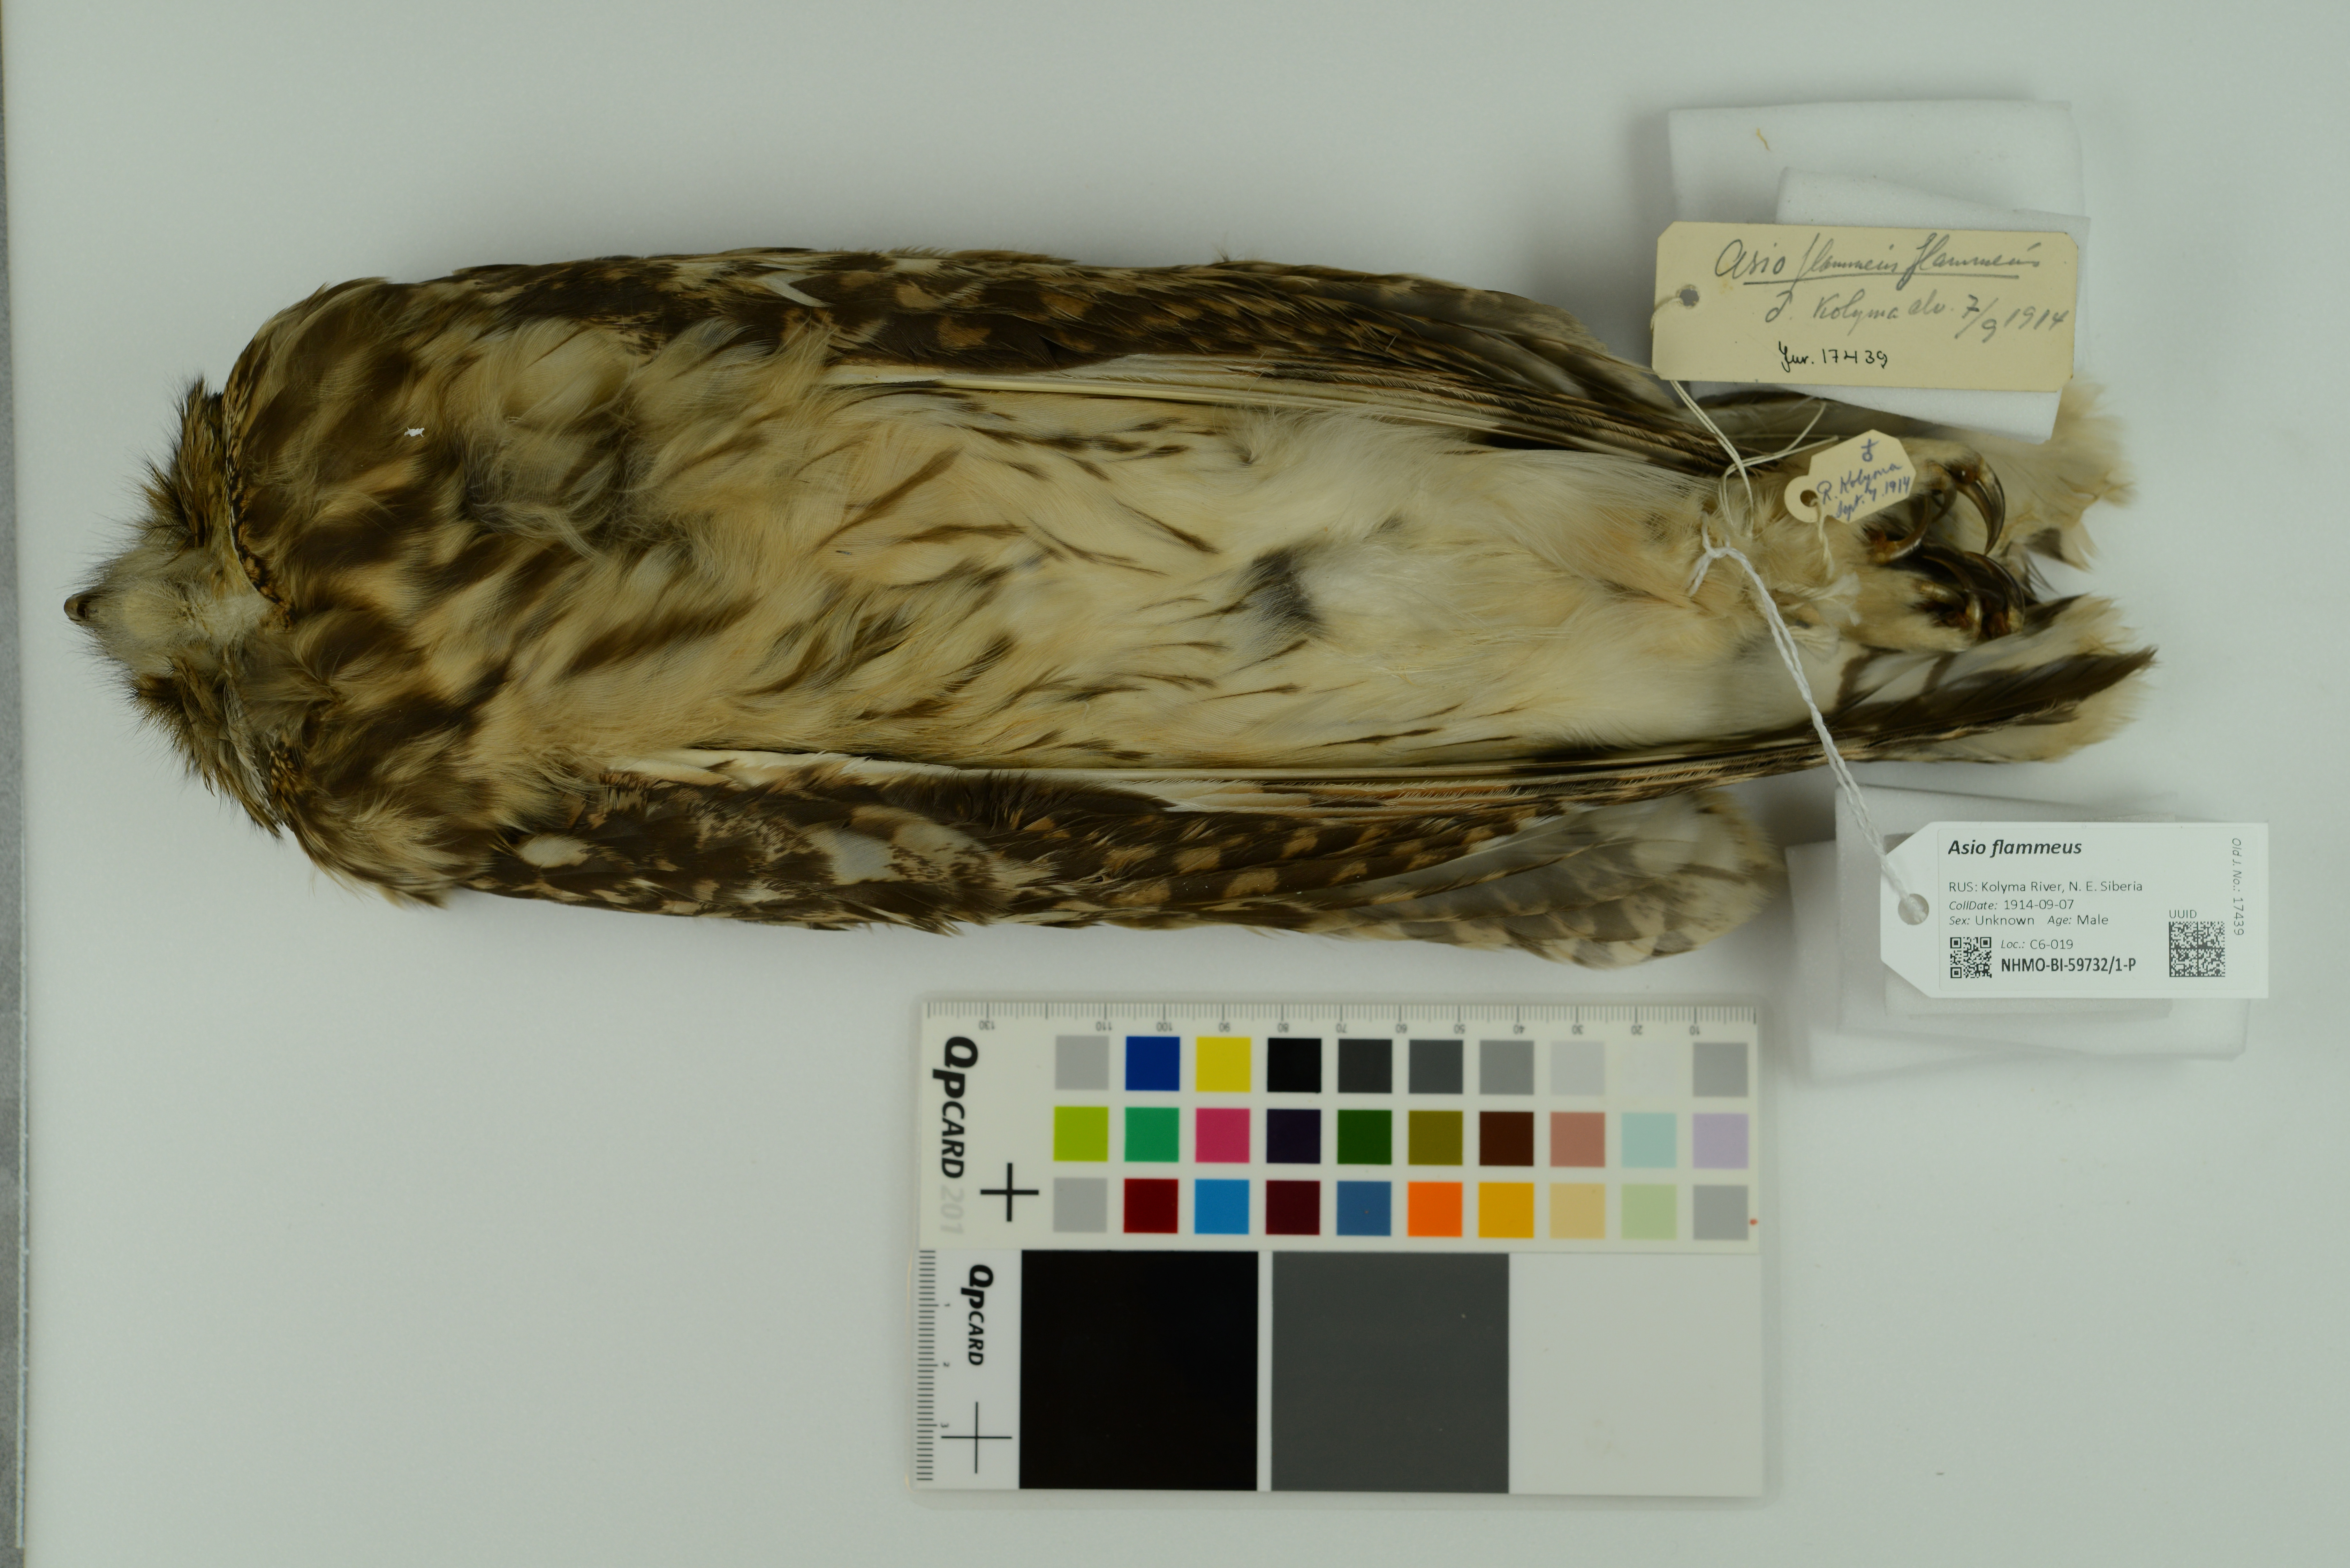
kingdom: Animalia
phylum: Chordata
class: Aves
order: Strigiformes
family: Strigidae
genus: Asio
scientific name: Asio flammeus
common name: Short-eared owl
